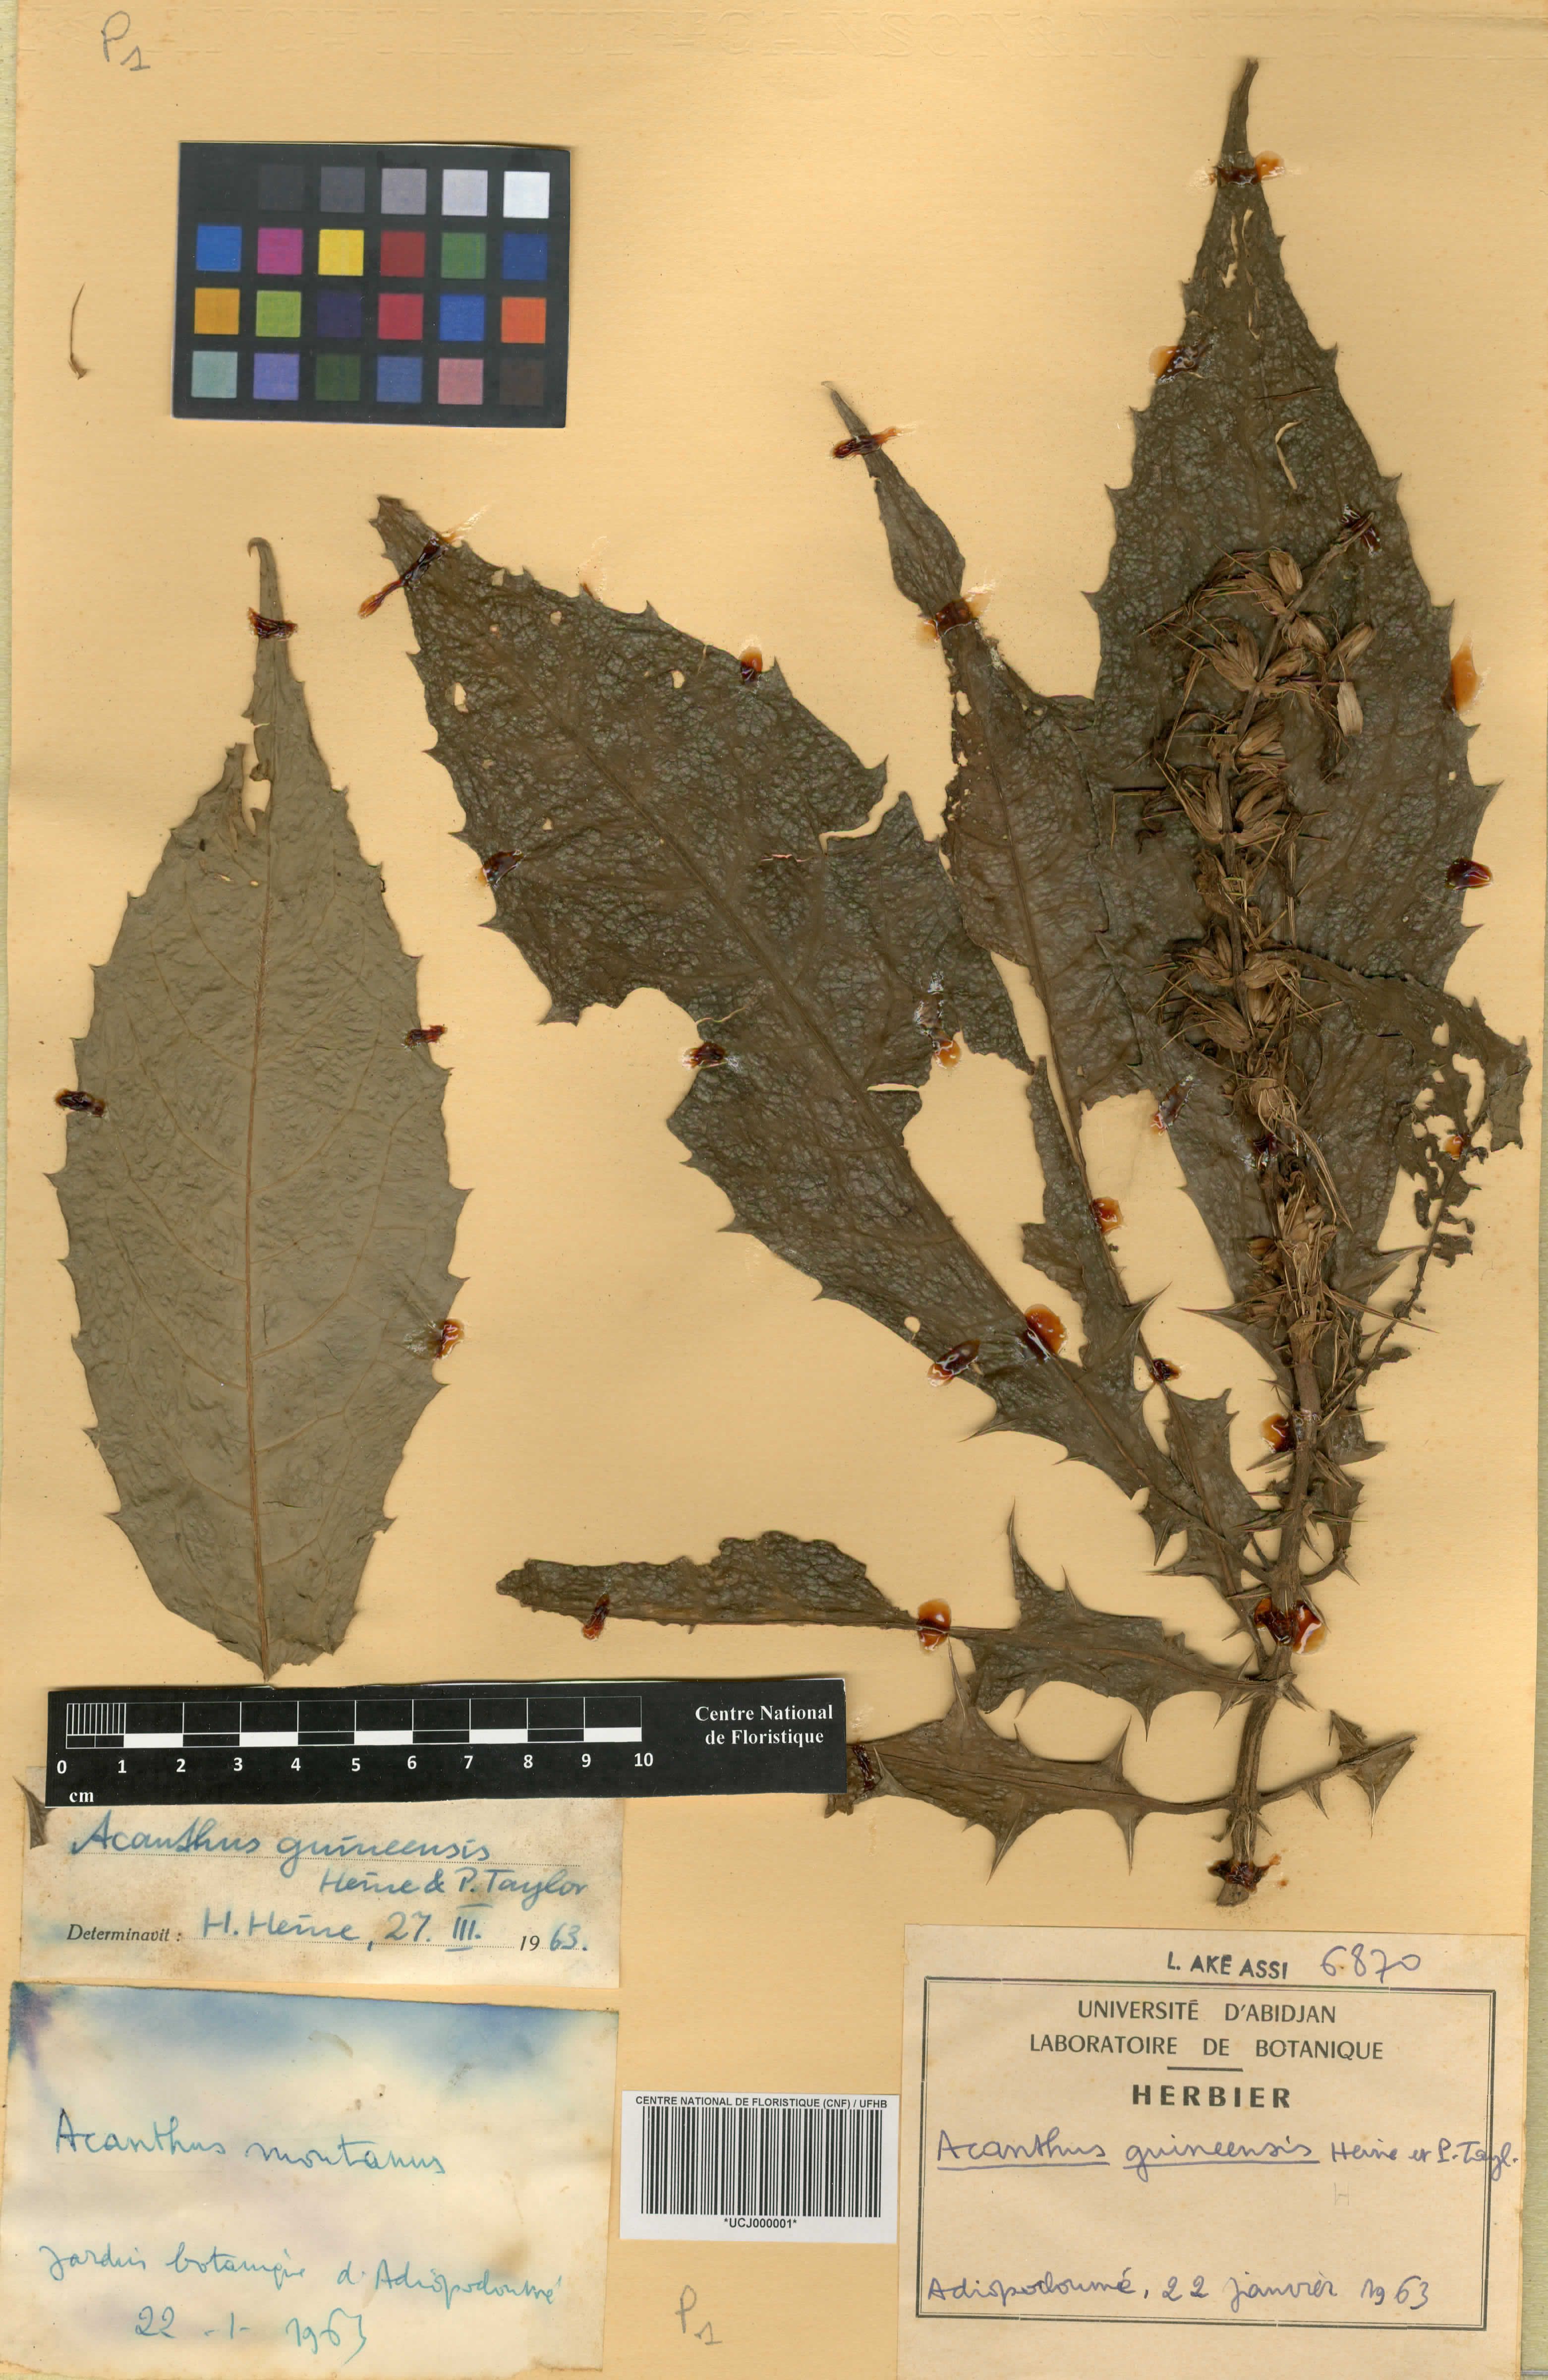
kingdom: Plantae
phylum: Tracheophyta
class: Magnoliopsida
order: Lamiales
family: Acanthaceae
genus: Acanthus
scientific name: Acanthus guineensis
